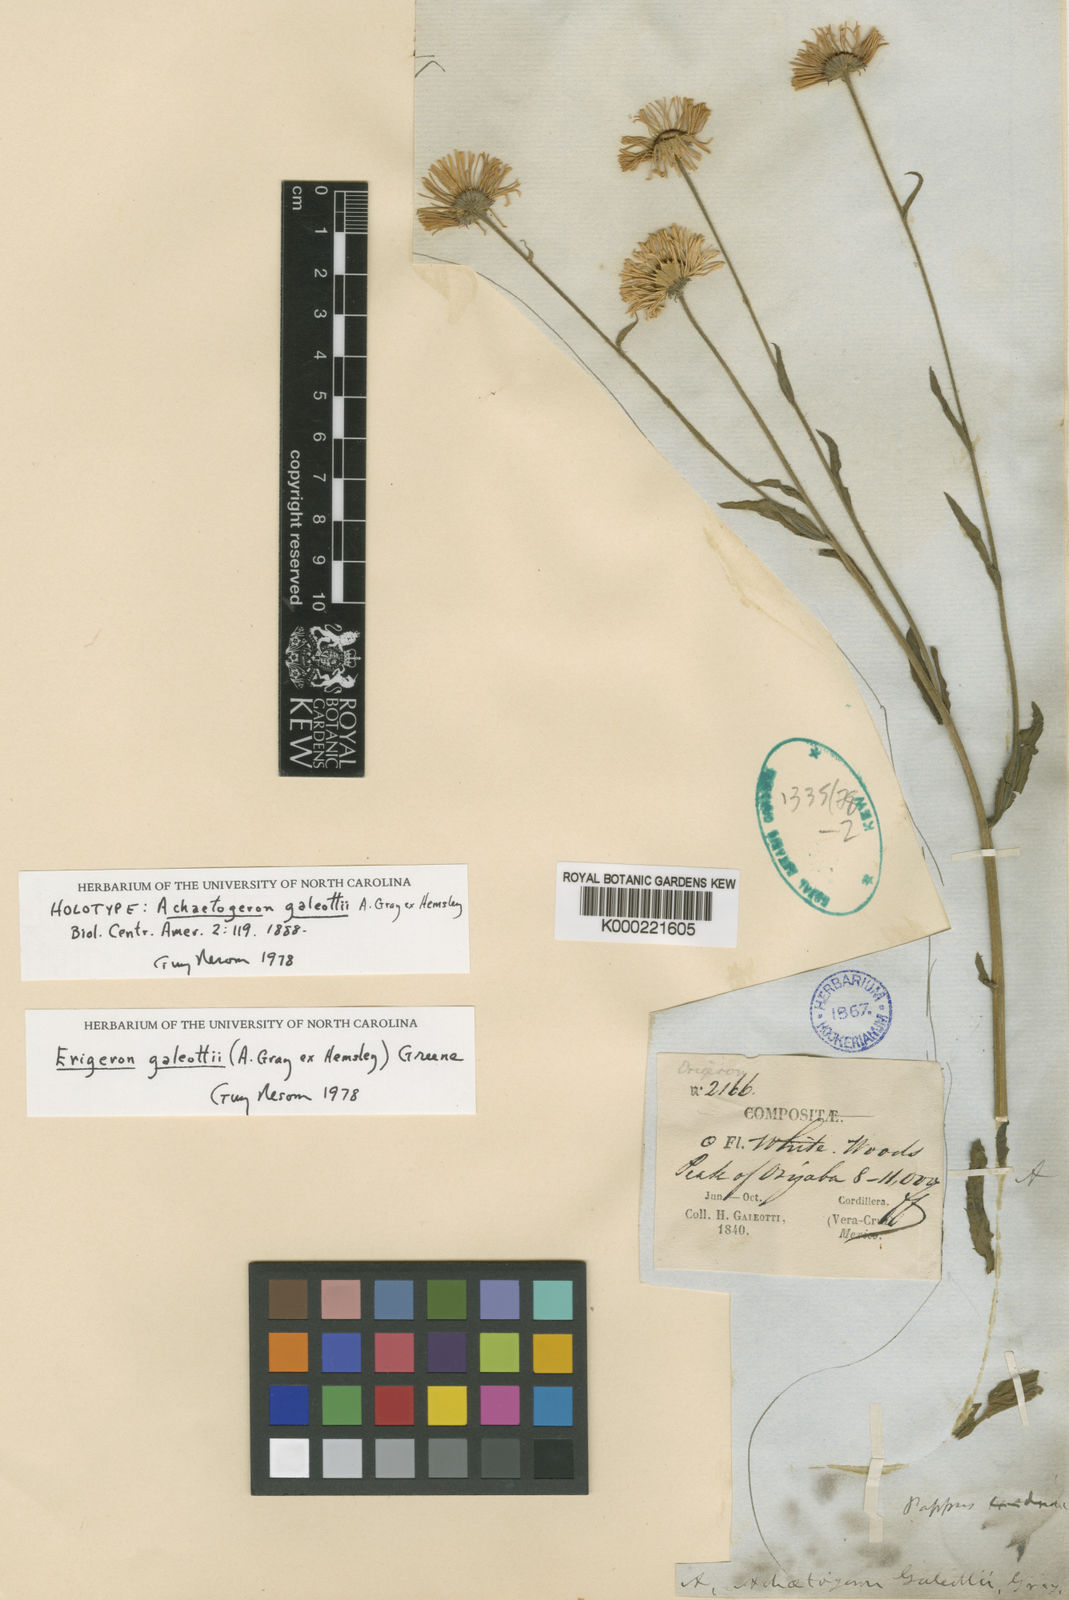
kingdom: Plantae
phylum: Tracheophyta
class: Magnoliopsida
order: Asterales
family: Asteraceae
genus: Erigeron
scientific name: Erigeron
